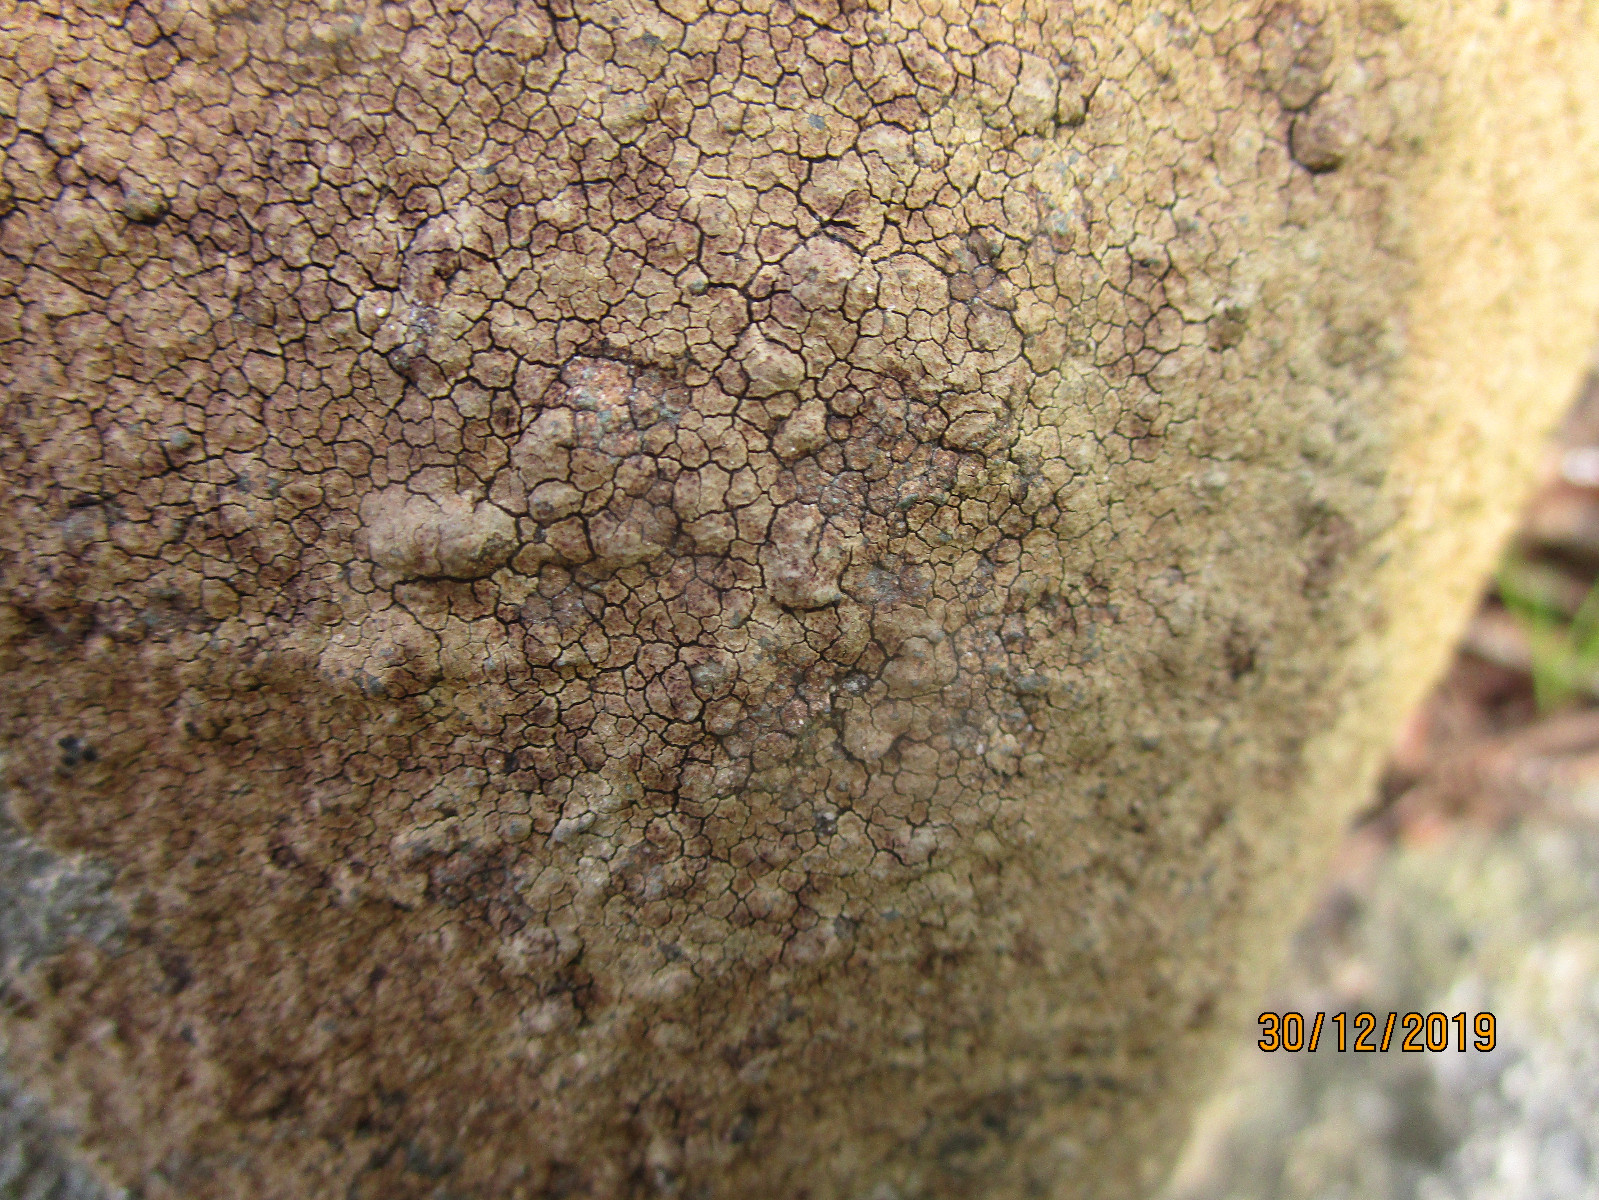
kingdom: Fungi
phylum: Ascomycota
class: Lecanoromycetes
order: Acarosporales
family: Acarosporaceae
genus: Acarospora
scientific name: Acarospora fuscata
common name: brun småsporelav
